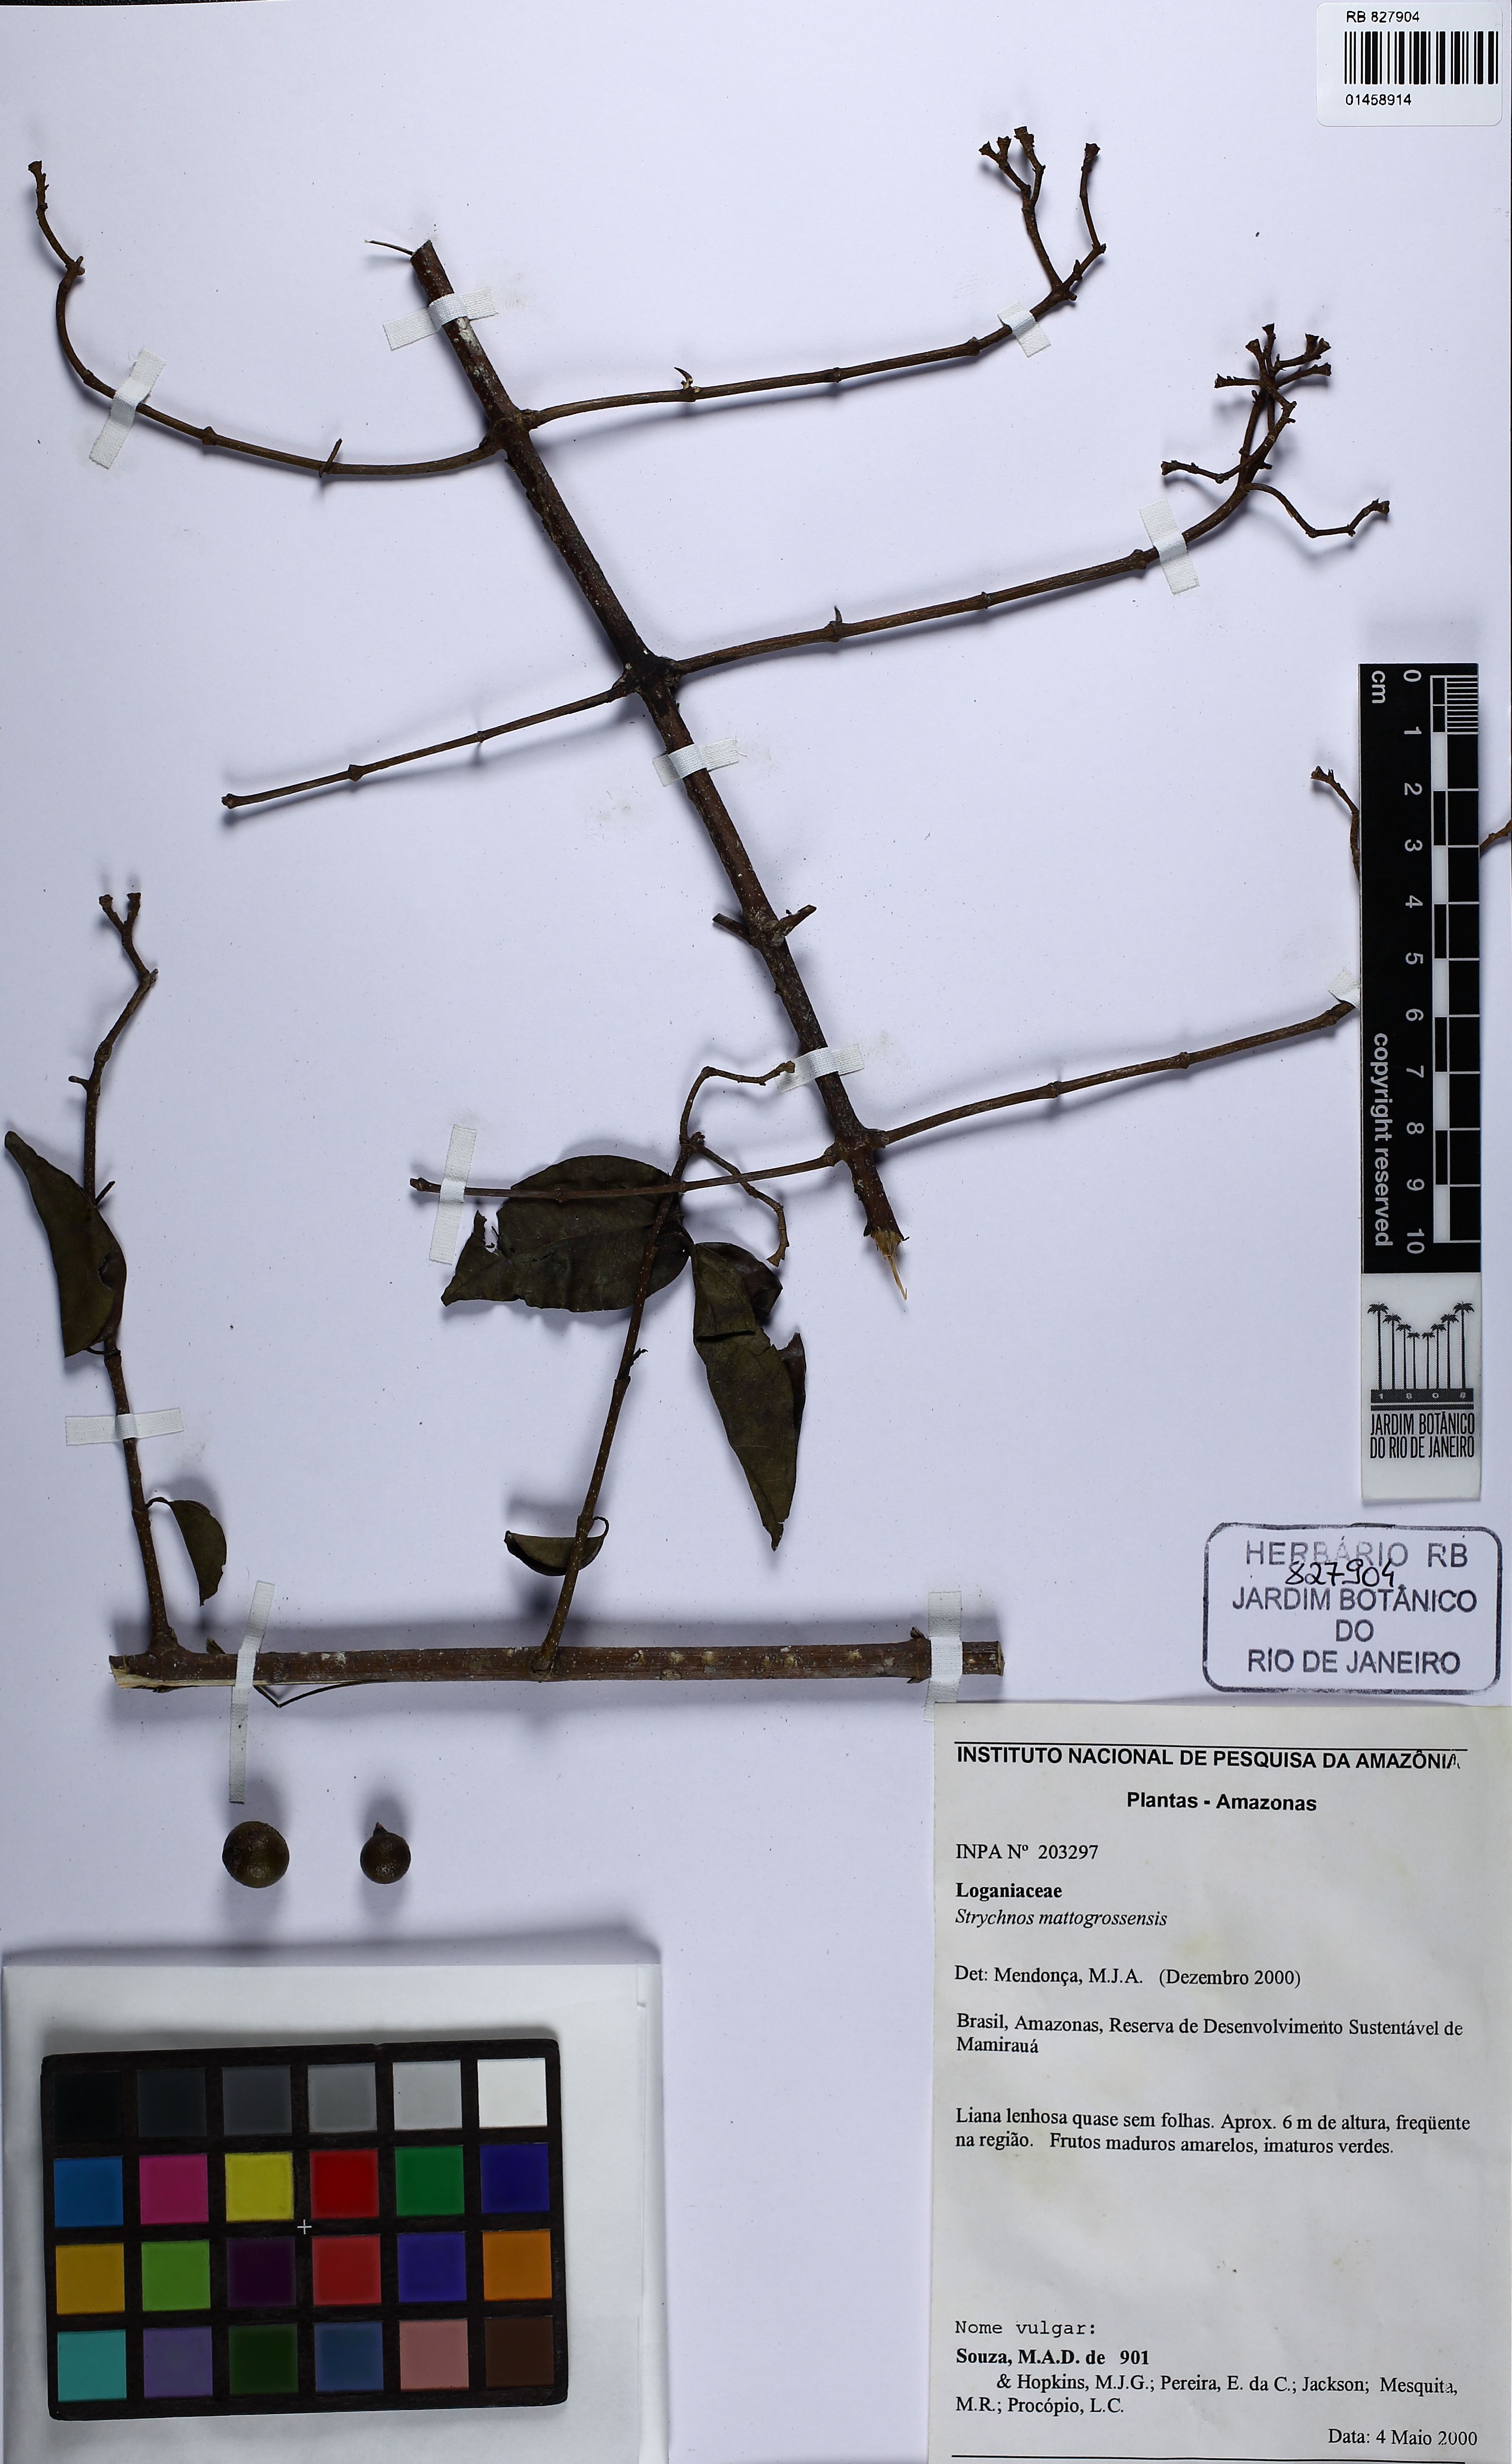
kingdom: Plantae
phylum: Tracheophyta
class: Magnoliopsida
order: Gentianales
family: Loganiaceae
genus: Strychnos
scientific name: Strychnos mattogrossensis
